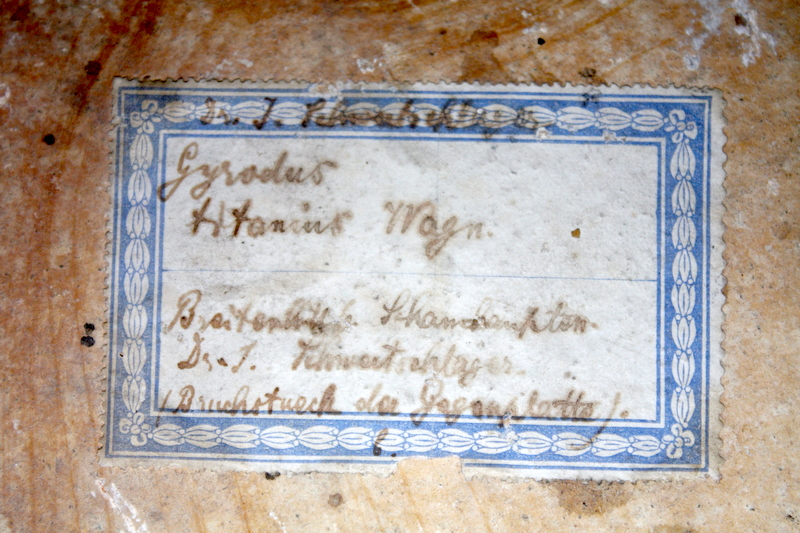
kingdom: Animalia
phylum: Chordata
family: Gyrodontidae
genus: Gyrodus
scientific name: Gyrodus circularis
